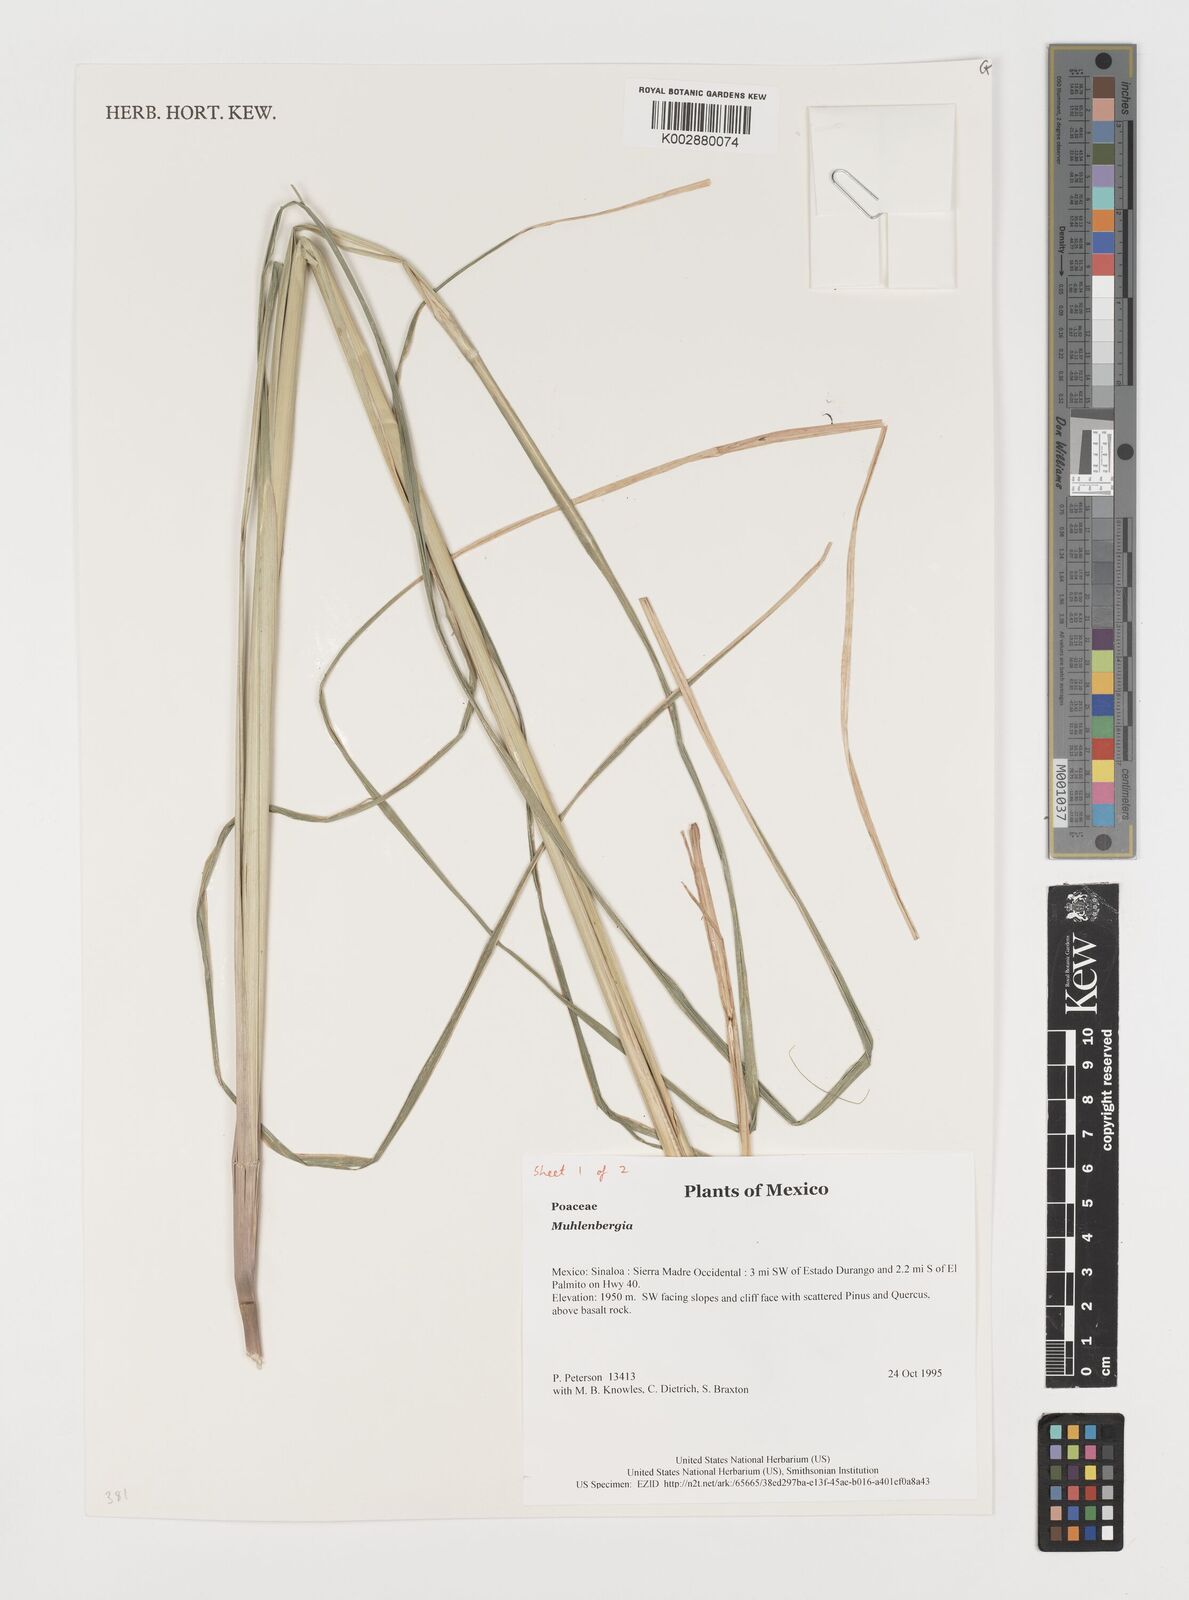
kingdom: Plantae
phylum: Tracheophyta
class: Liliopsida
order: Poales
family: Poaceae
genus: Muhlenbergia
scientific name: Muhlenbergia
